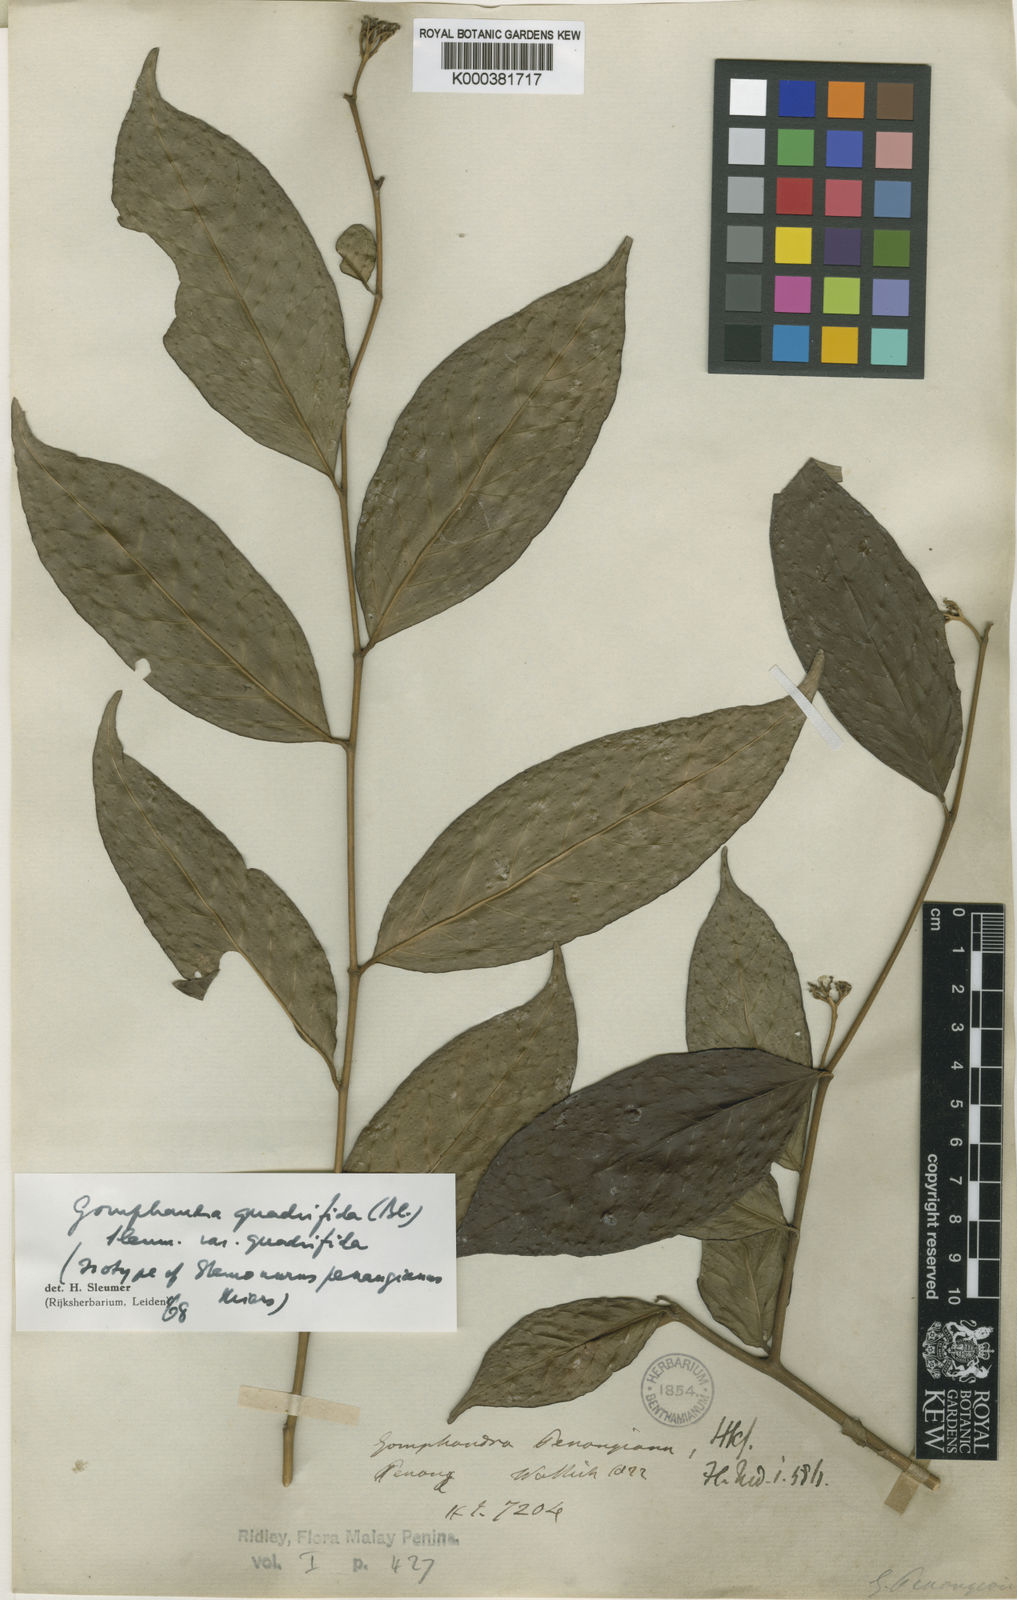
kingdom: Plantae
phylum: Tracheophyta
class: Magnoliopsida
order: Cardiopteridales
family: Stemonuraceae
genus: Gomphandra
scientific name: Gomphandra quadrifida
